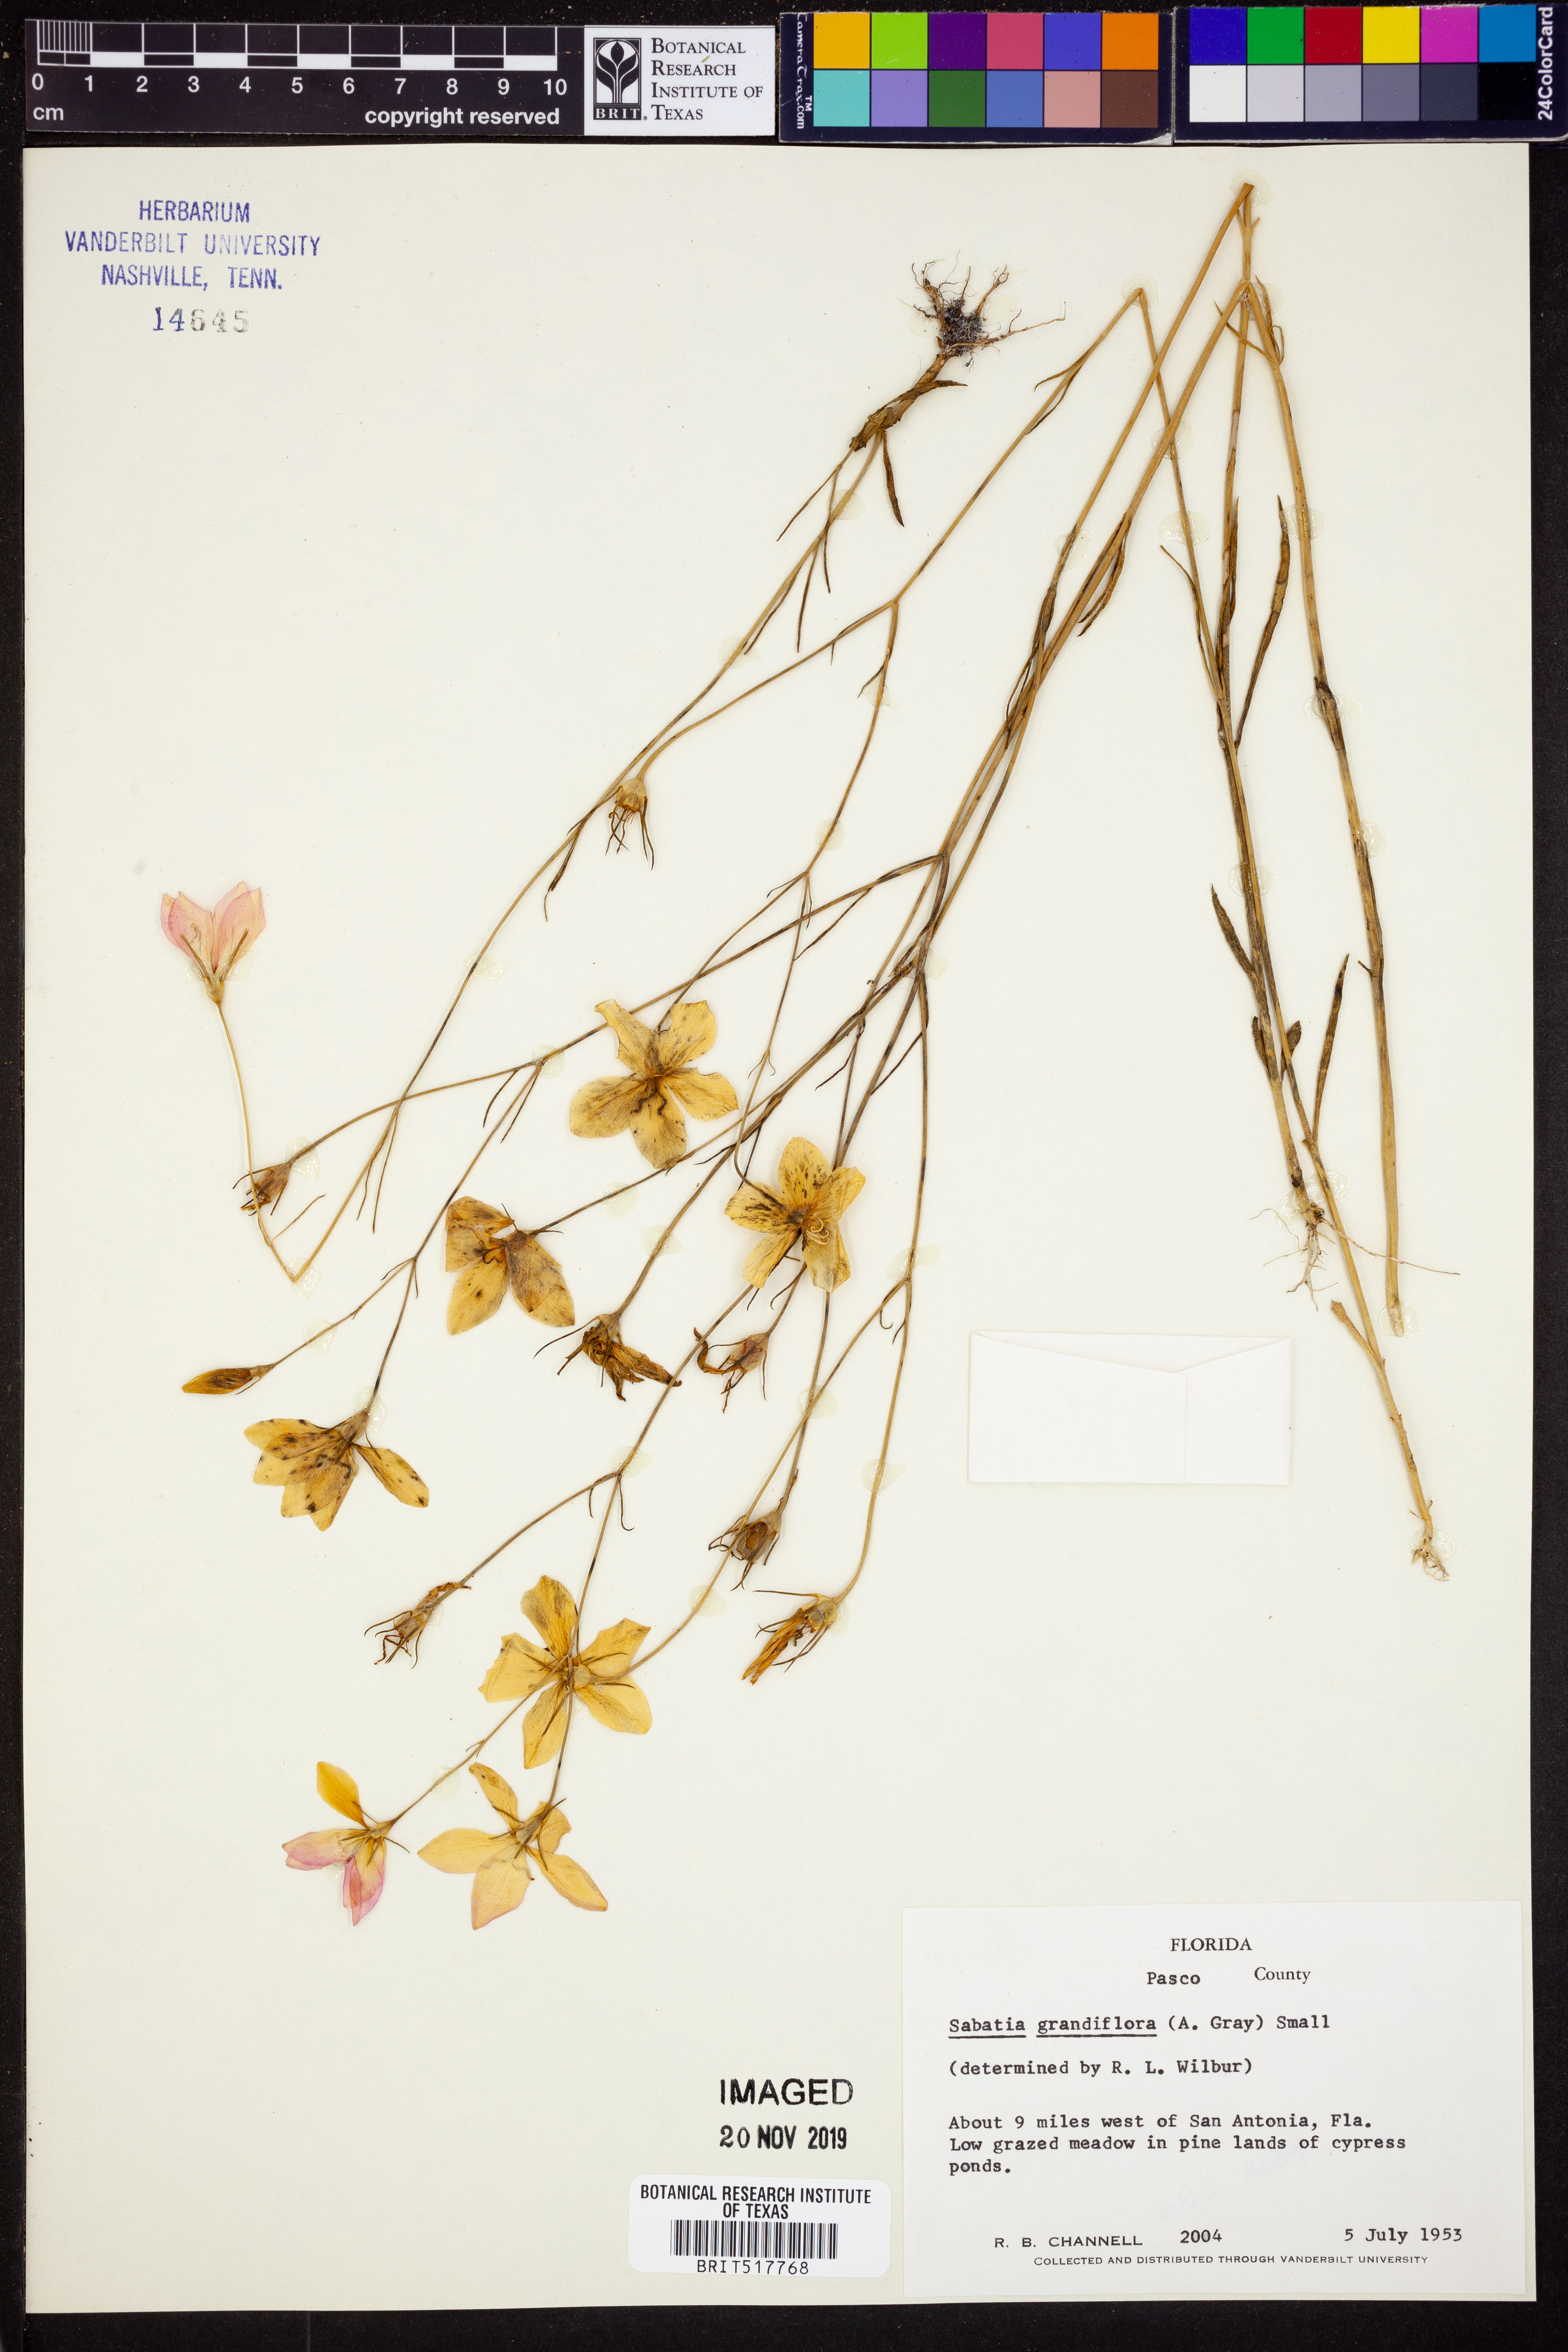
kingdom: Plantae
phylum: Tracheophyta
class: Magnoliopsida
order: Gentianales
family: Gentianaceae
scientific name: Gentianaceae
